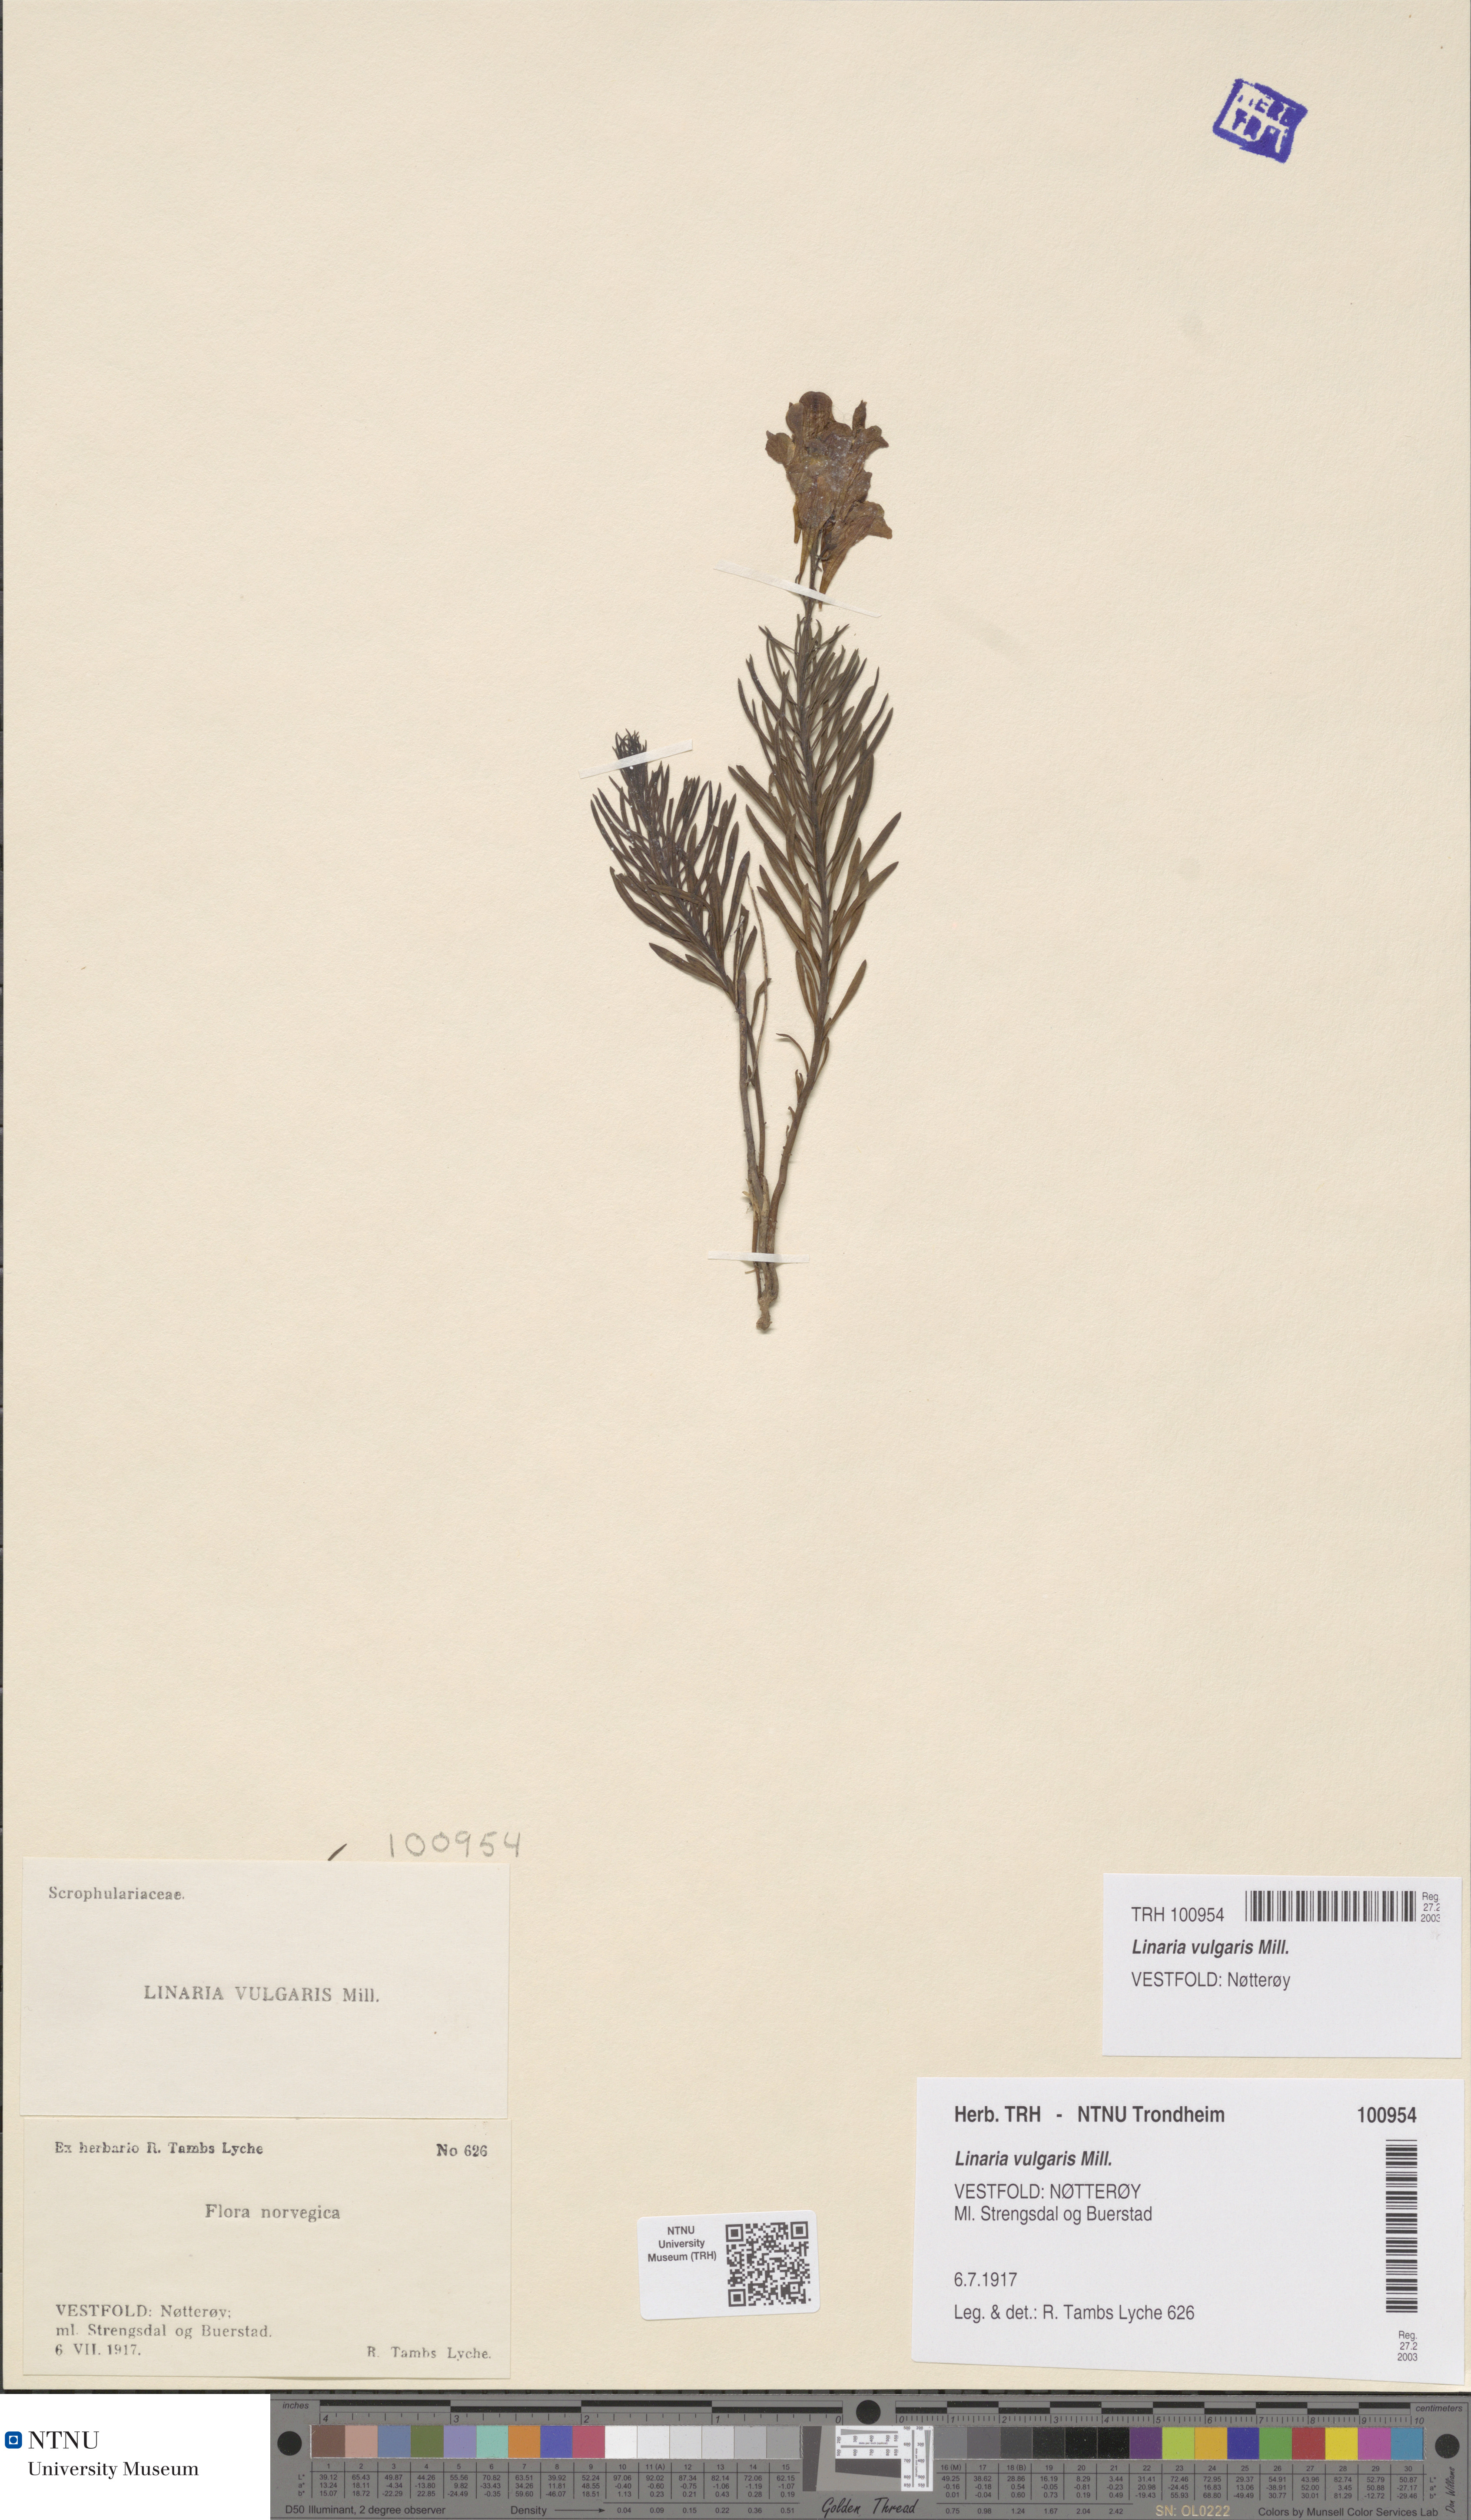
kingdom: Plantae
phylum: Tracheophyta
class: Magnoliopsida
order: Lamiales
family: Plantaginaceae
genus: Linaria
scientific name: Linaria vulgaris
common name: Butter and eggs
